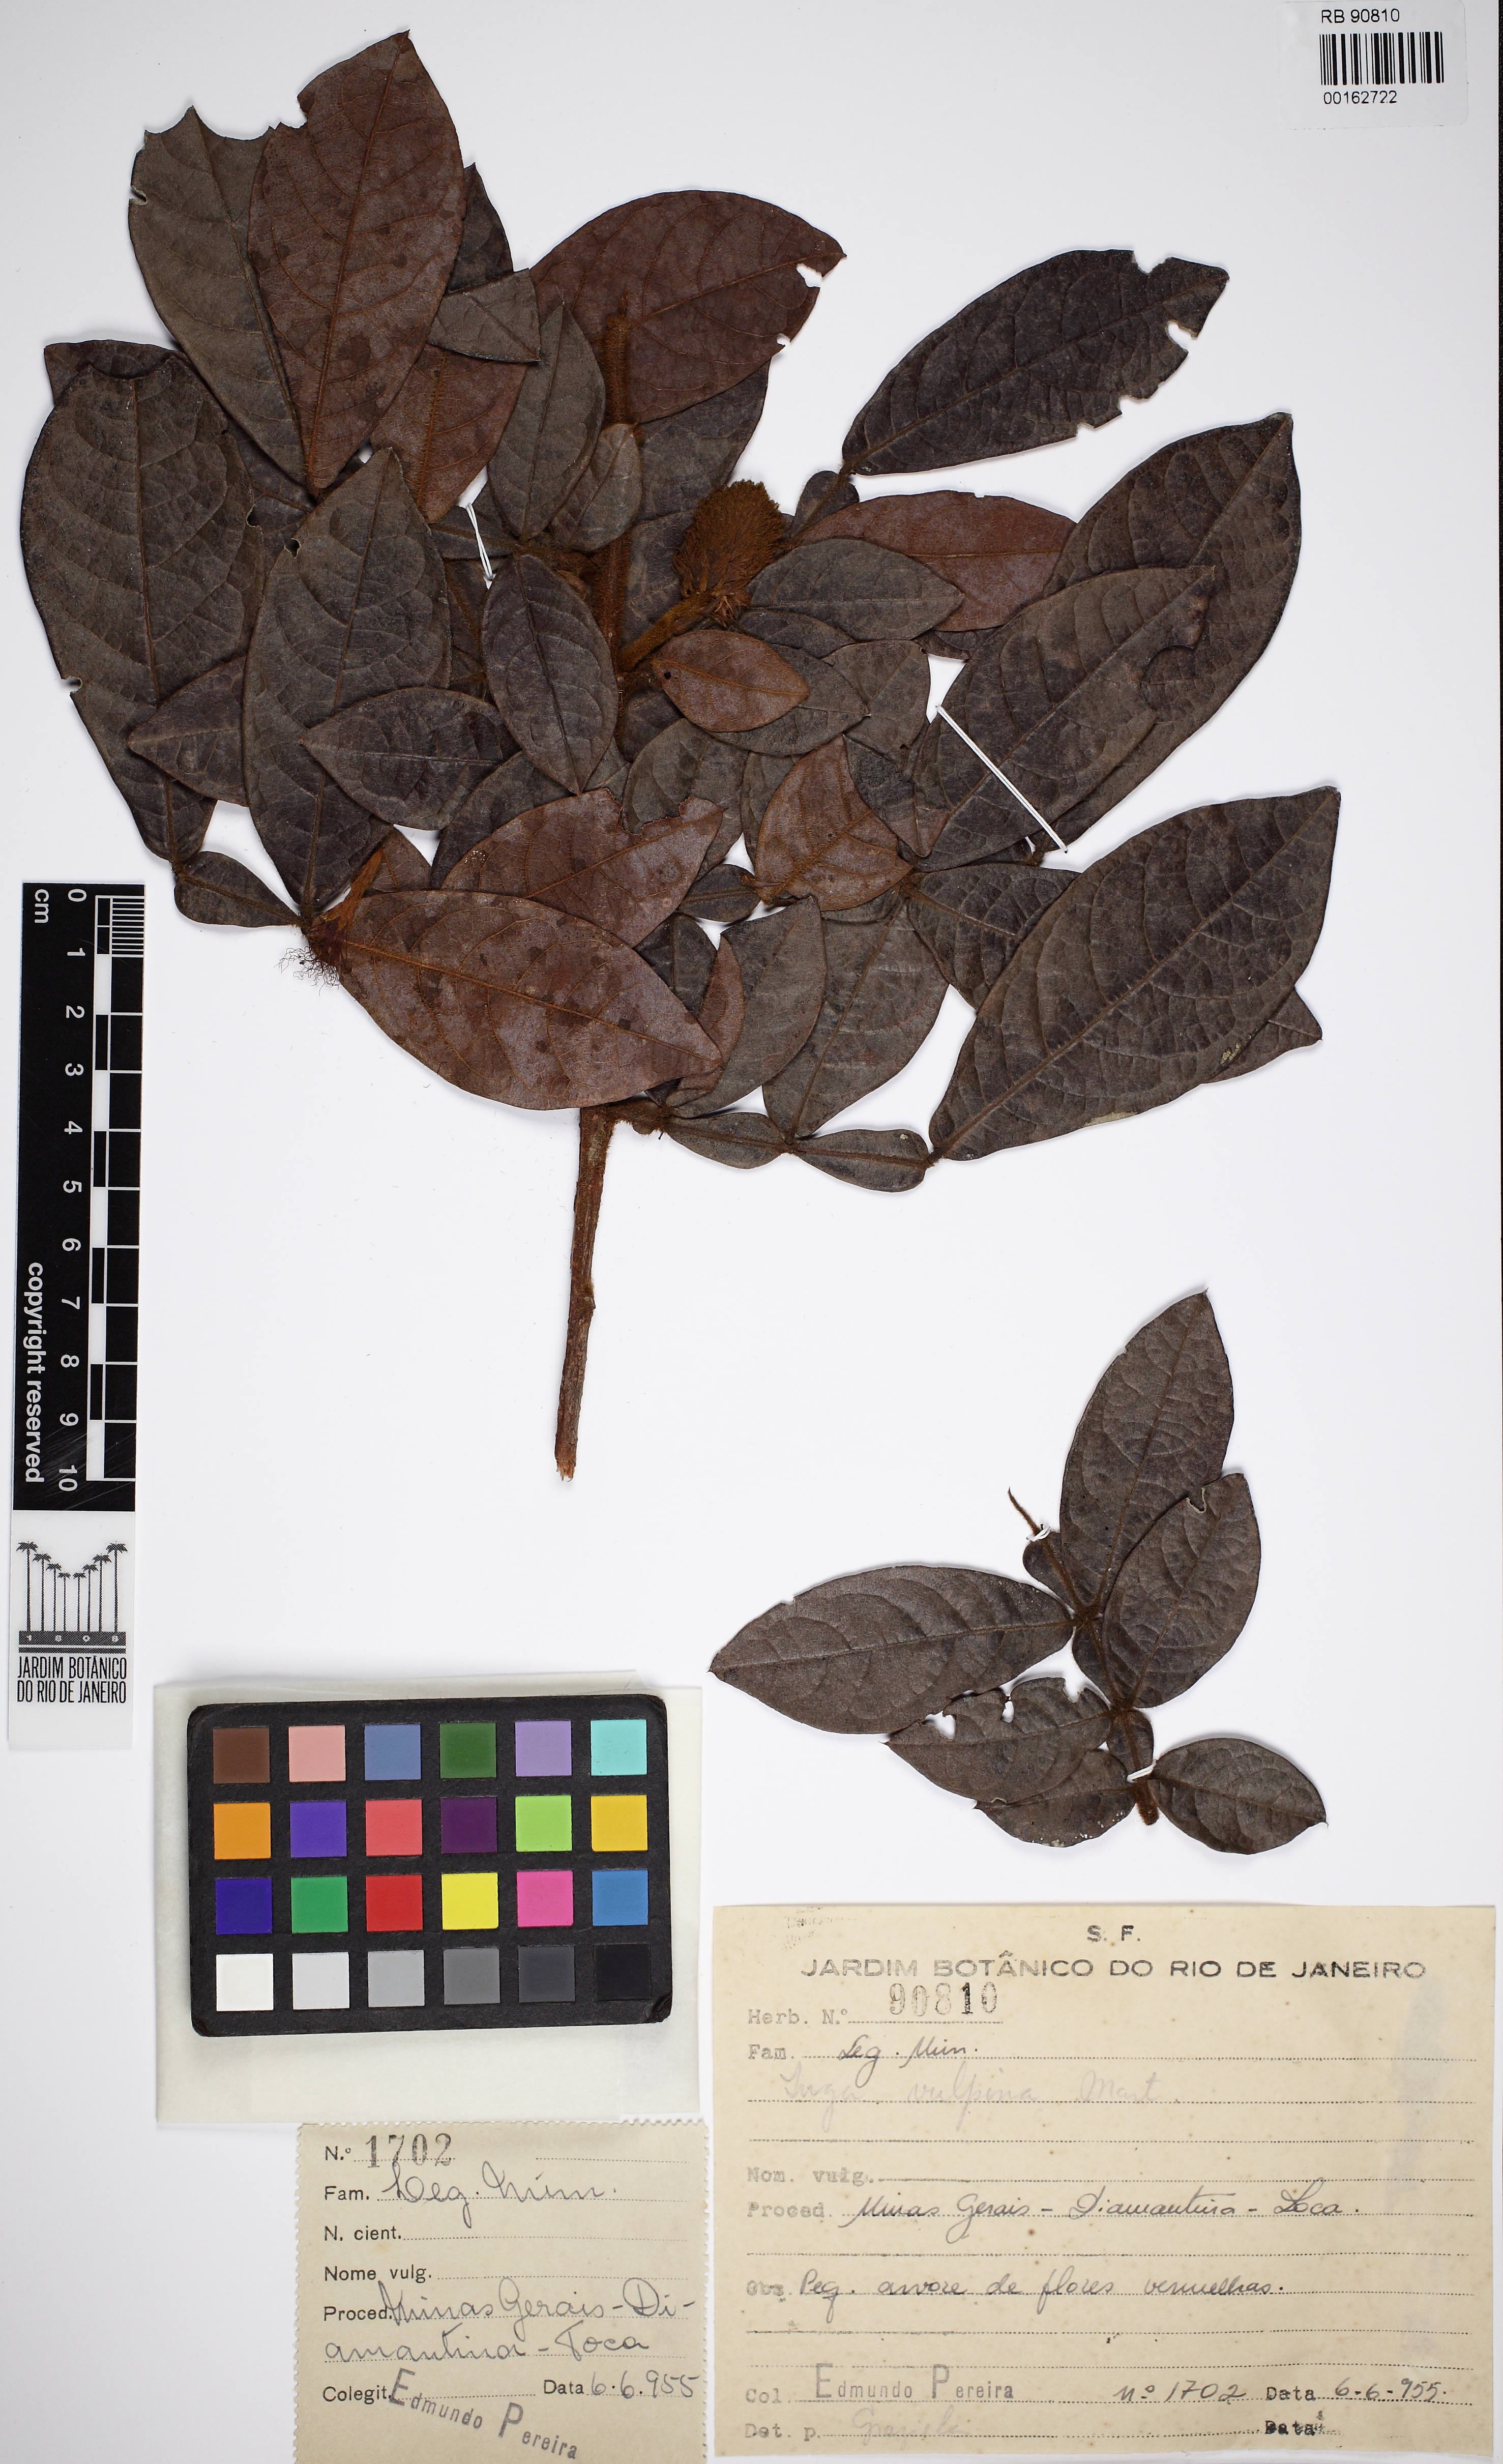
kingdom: Plantae
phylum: Tracheophyta
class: Magnoliopsida
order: Fabales
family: Fabaceae
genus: Inga
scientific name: Inga vulpina
